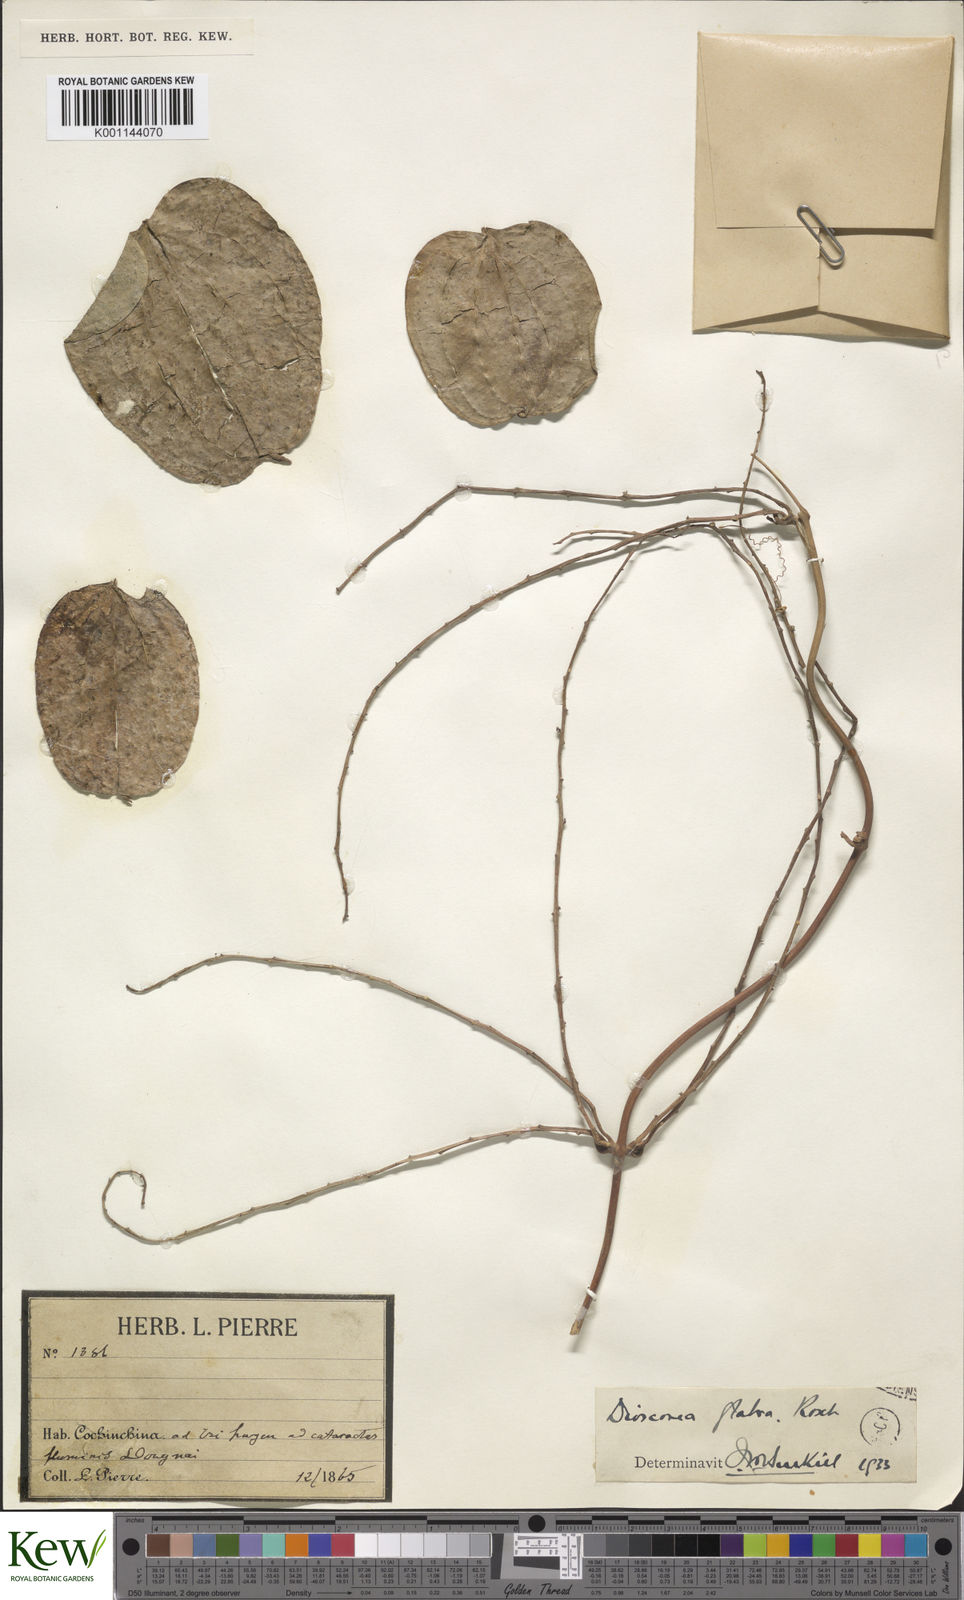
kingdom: Plantae
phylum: Tracheophyta
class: Liliopsida
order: Dioscoreales
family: Dioscoreaceae
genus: Dioscorea
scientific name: Dioscorea glabra
